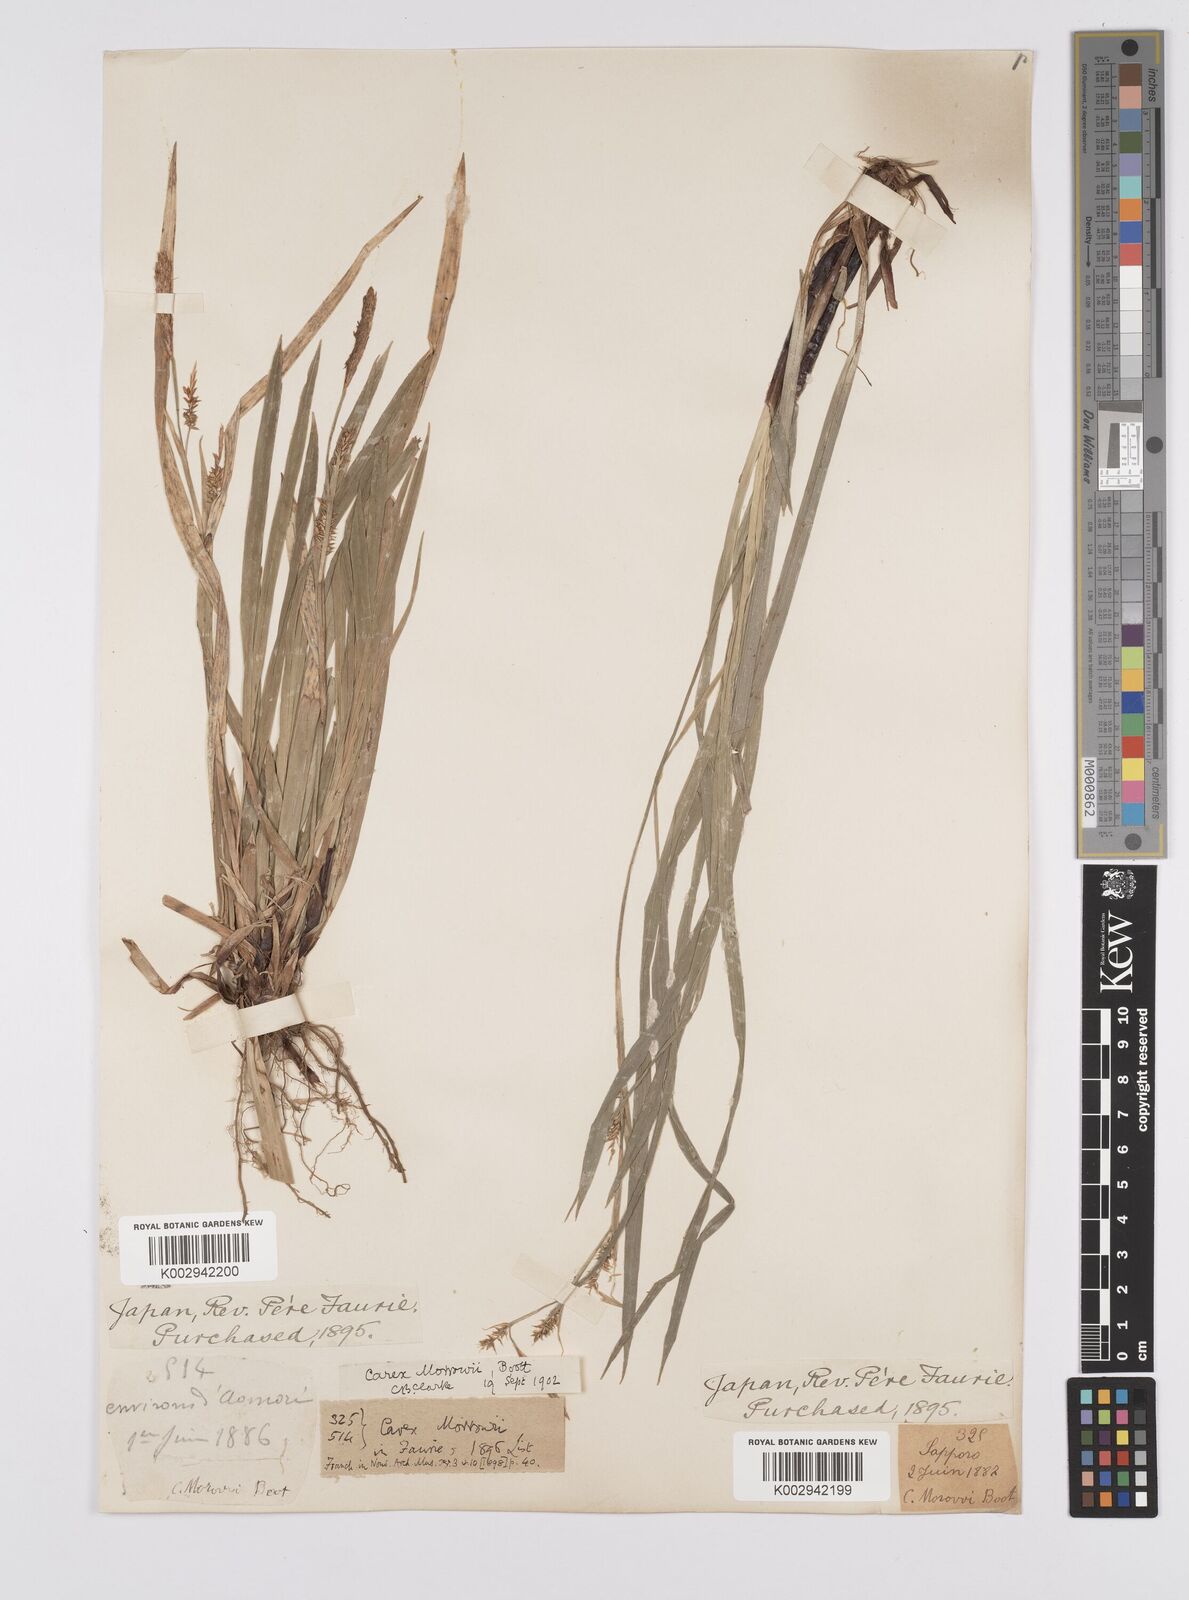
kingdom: Plantae
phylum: Tracheophyta
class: Liliopsida
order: Poales
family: Cyperaceae
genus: Carex
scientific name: Carex morrowii
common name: Japanese sedge
